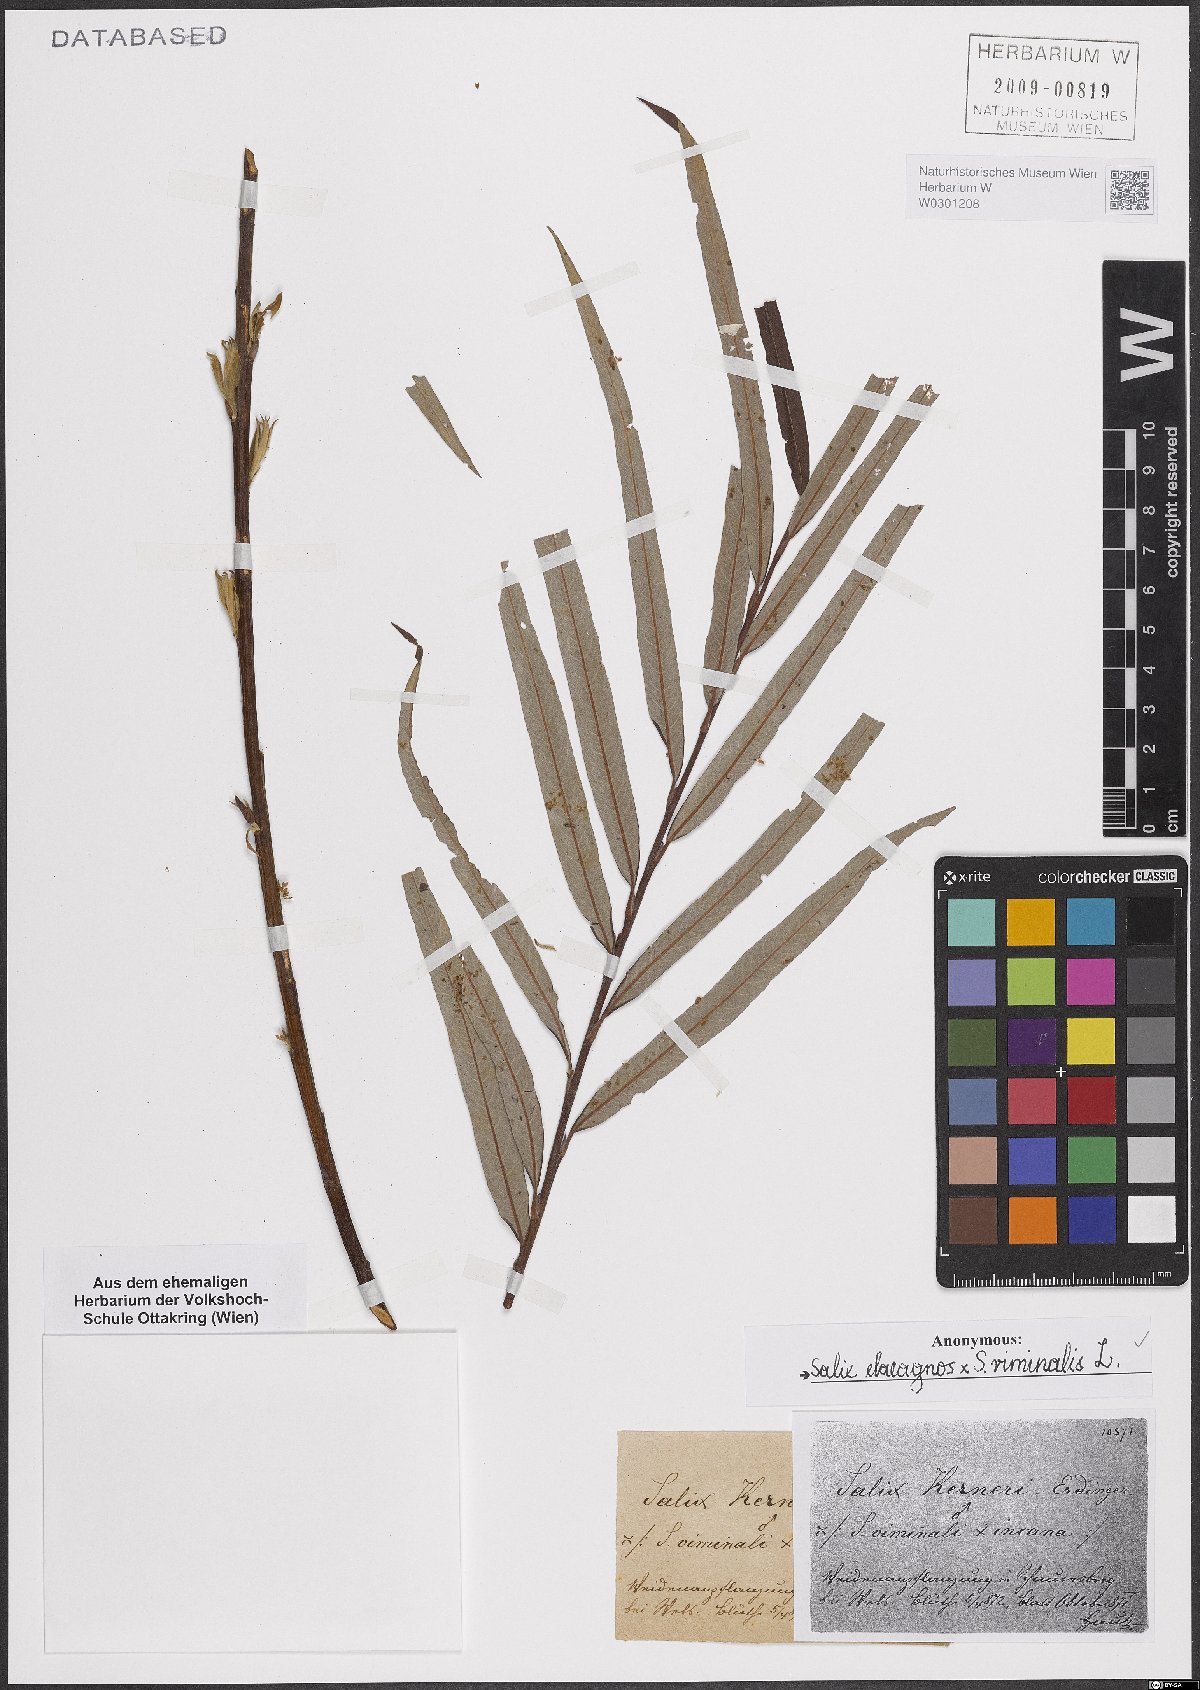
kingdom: Plantae
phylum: Tracheophyta
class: Magnoliopsida
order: Malpighiales
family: Salicaceae
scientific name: Salicaceae
